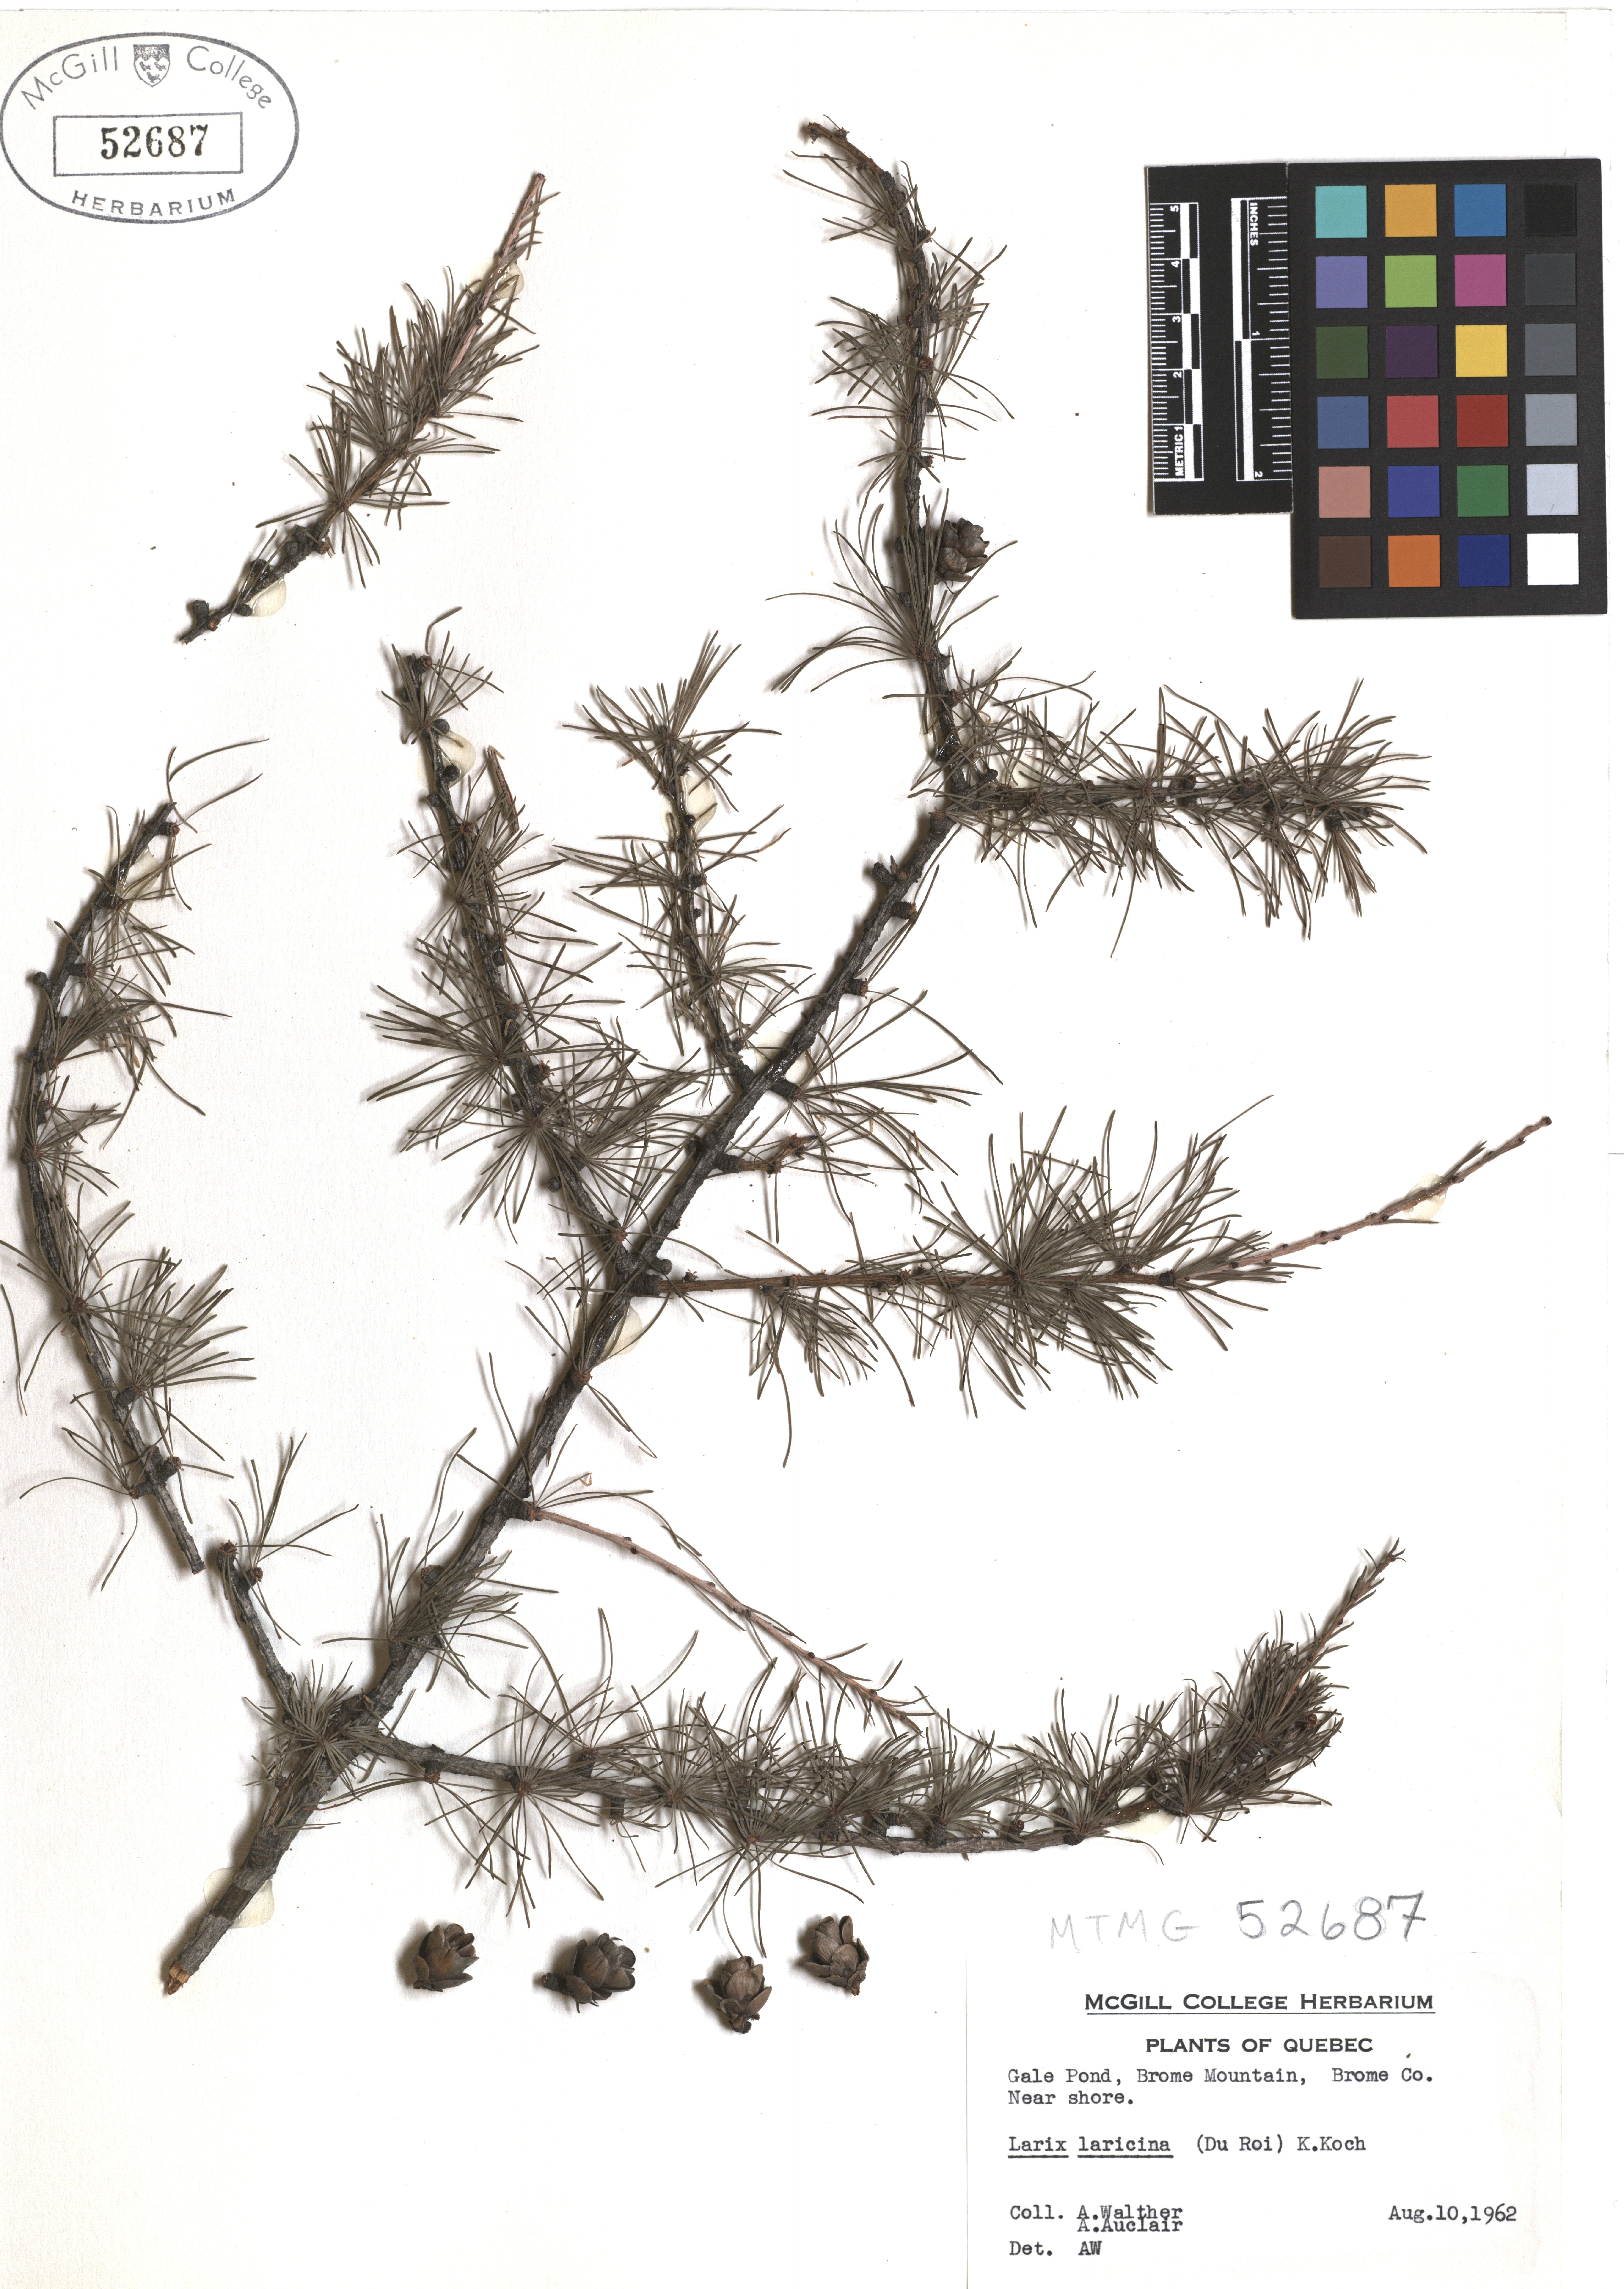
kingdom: Plantae
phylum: Tracheophyta
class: Pinopsida
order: Pinales
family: Pinaceae
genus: Larix
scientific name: Larix laricina
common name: American larch
